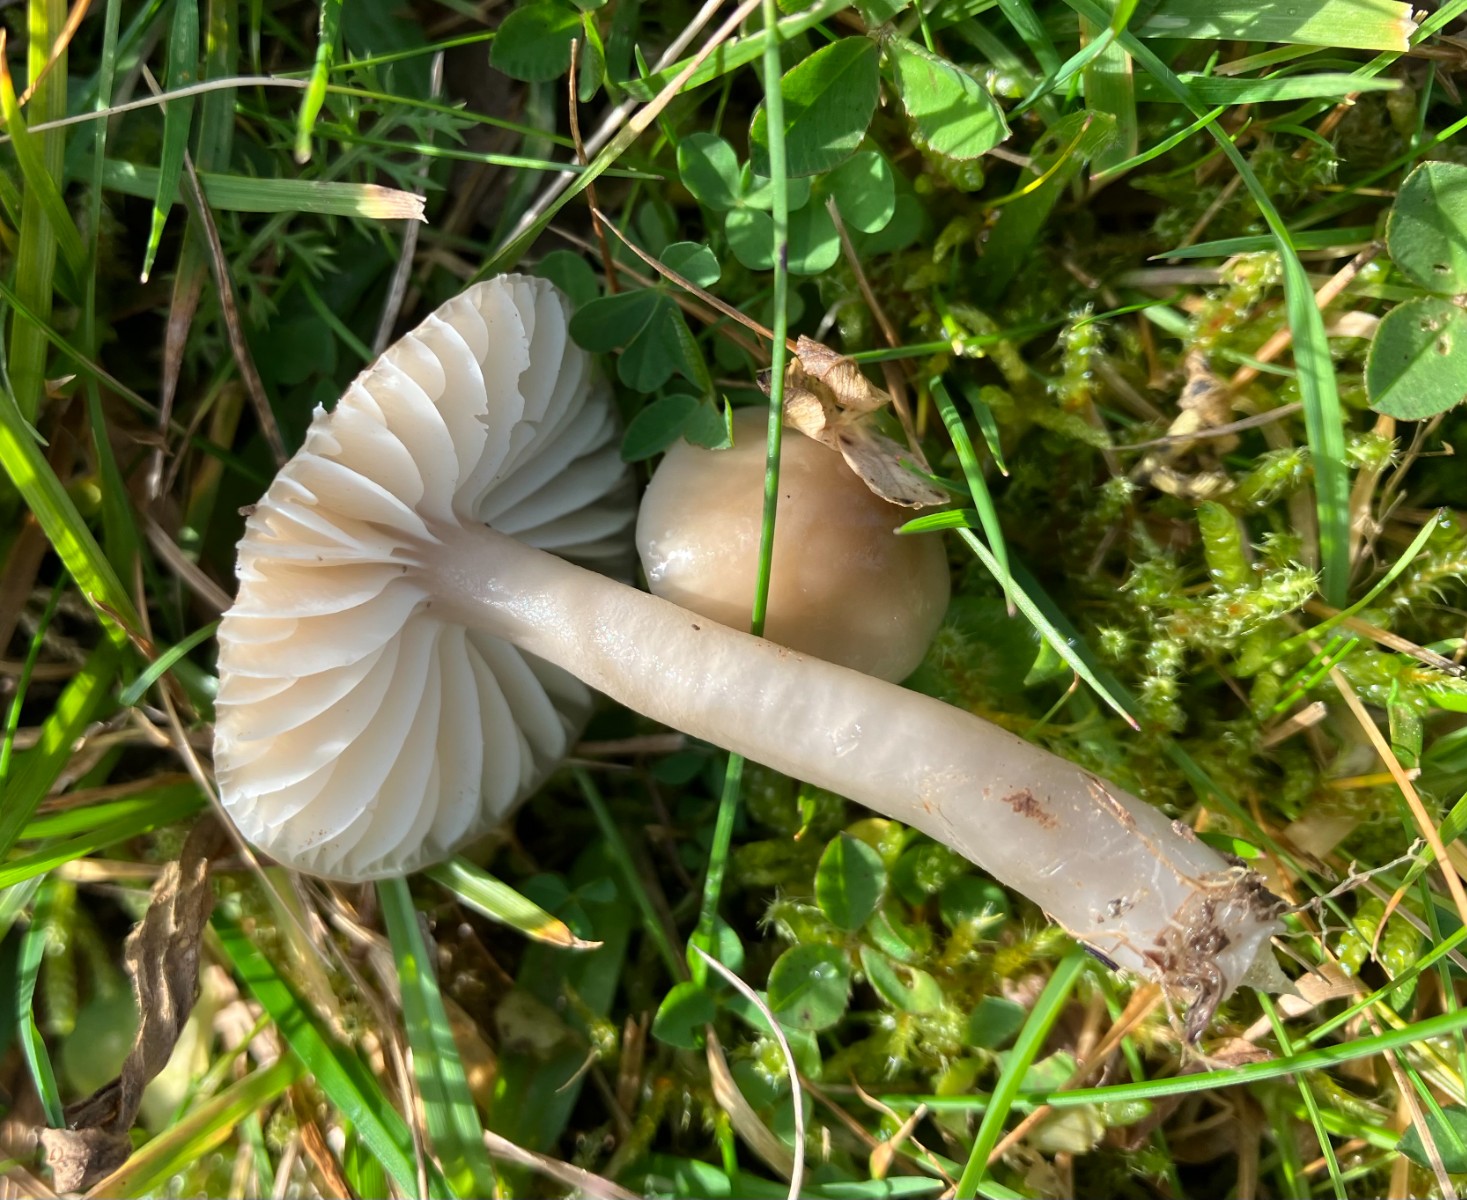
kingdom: Fungi
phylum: Basidiomycota
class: Agaricomycetes
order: Agaricales
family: Hygrophoraceae
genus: Gliophorus
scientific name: Gliophorus irrigatus
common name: slimet vokshat
